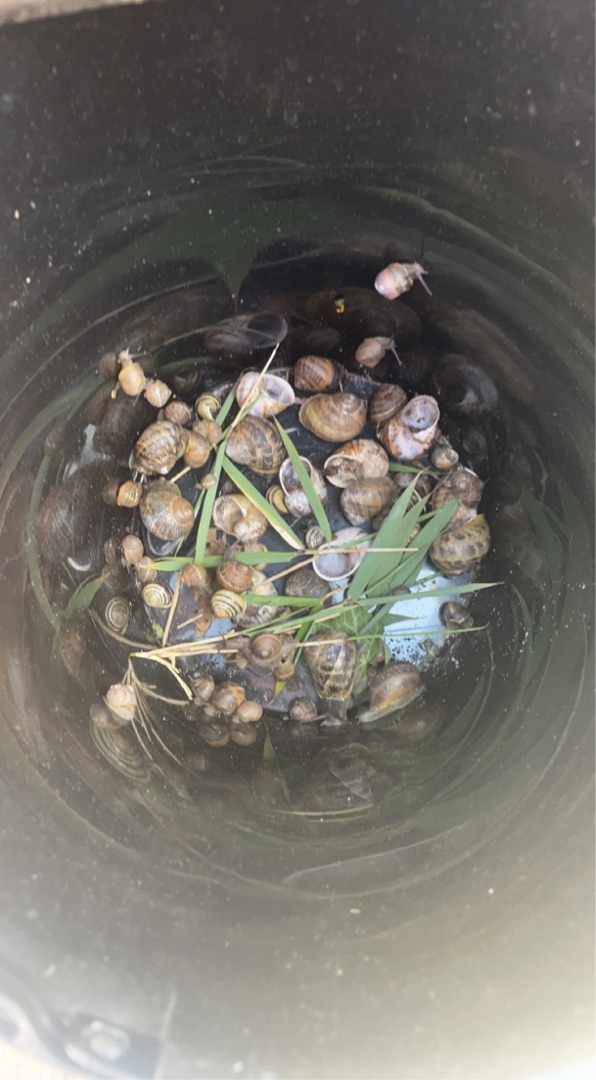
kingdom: Animalia
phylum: Mollusca
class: Gastropoda
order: Stylommatophora
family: Helicidae
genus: Cornu
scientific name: Cornu aspersum
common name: Plettet voldsnegl
